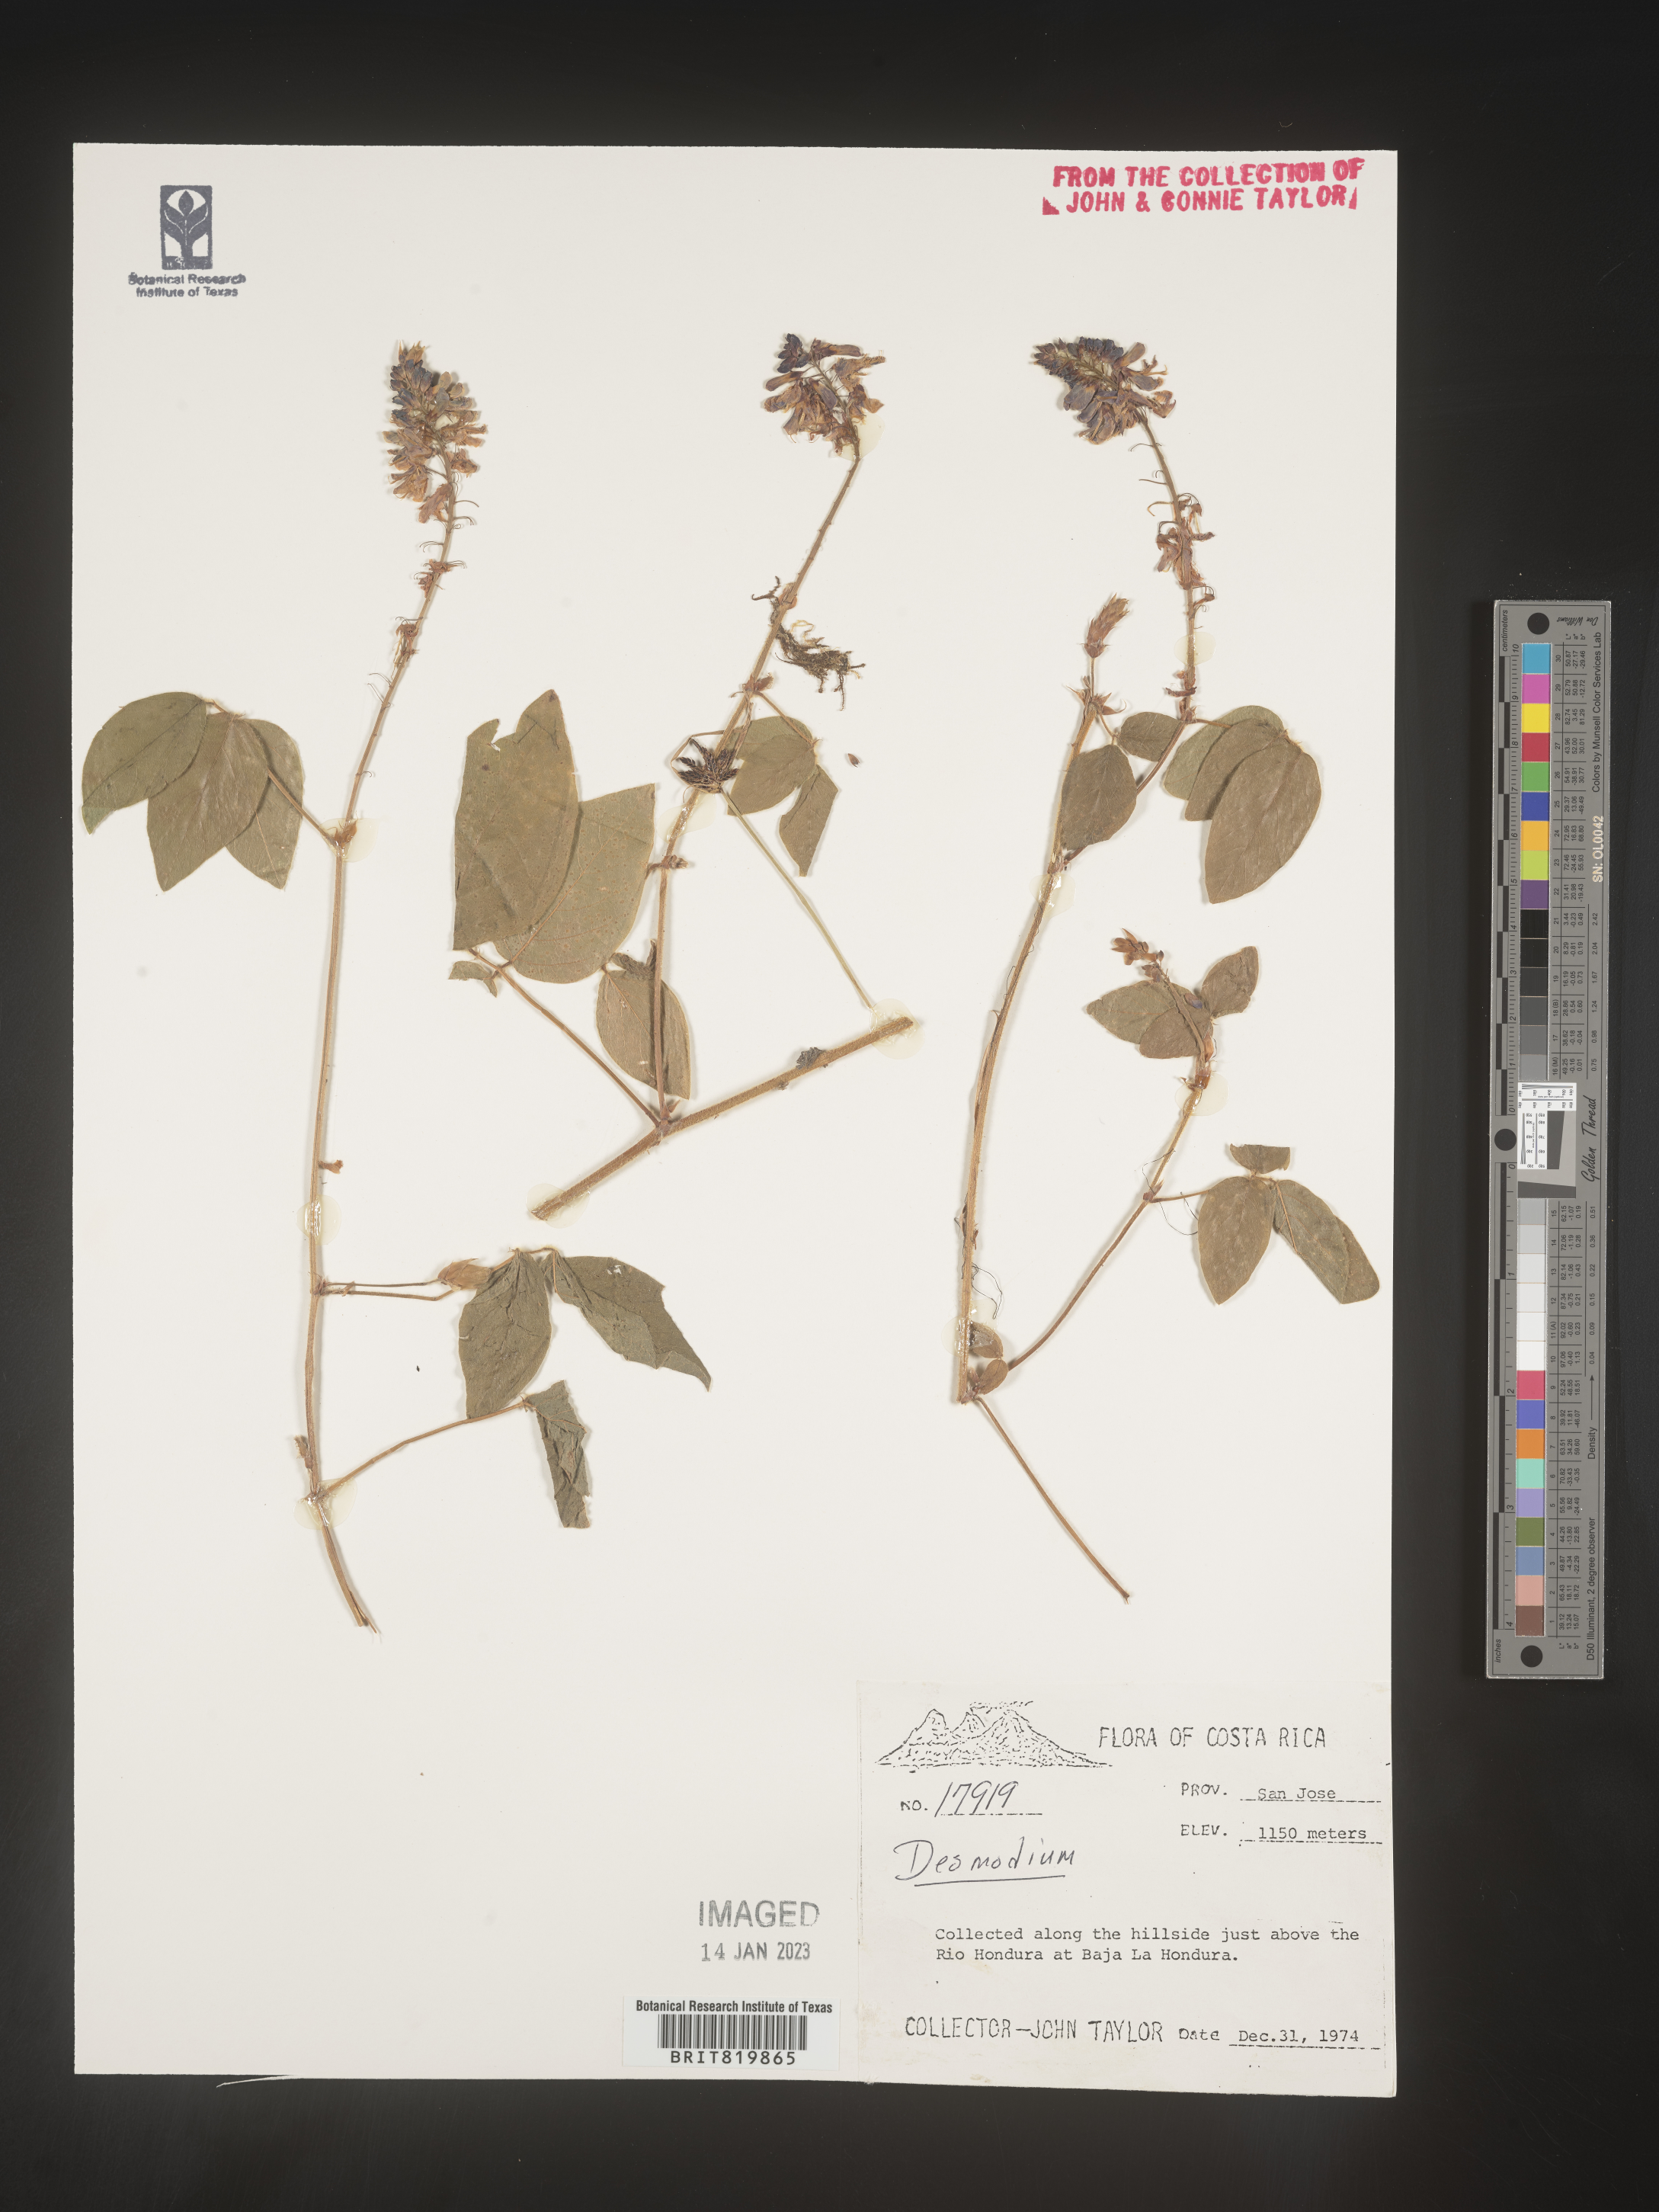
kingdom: Plantae
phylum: Tracheophyta
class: Magnoliopsida
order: Fabales
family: Fabaceae
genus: Desmodium
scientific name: Desmodium
